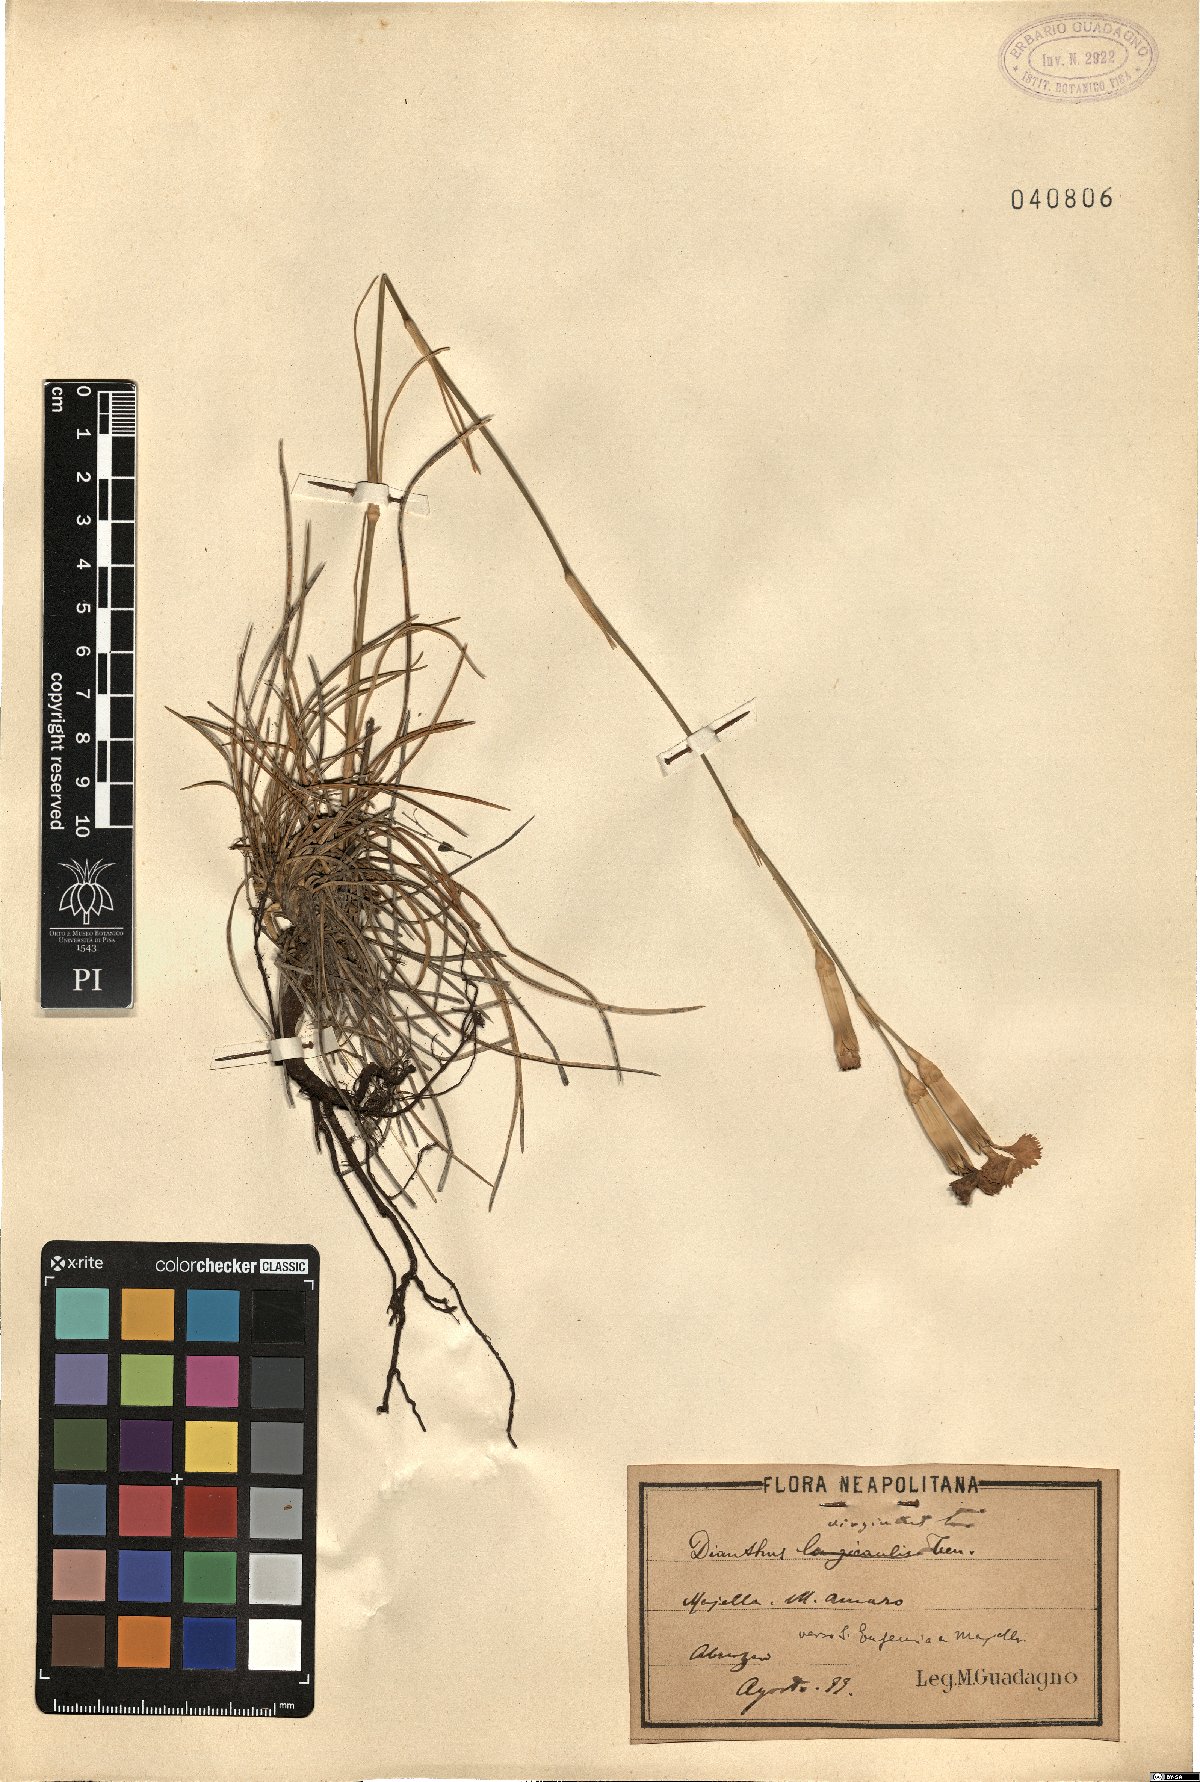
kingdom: Plantae
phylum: Tracheophyta
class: Magnoliopsida
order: Caryophyllales
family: Caryophyllaceae
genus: Dianthus
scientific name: Dianthus virgineus
